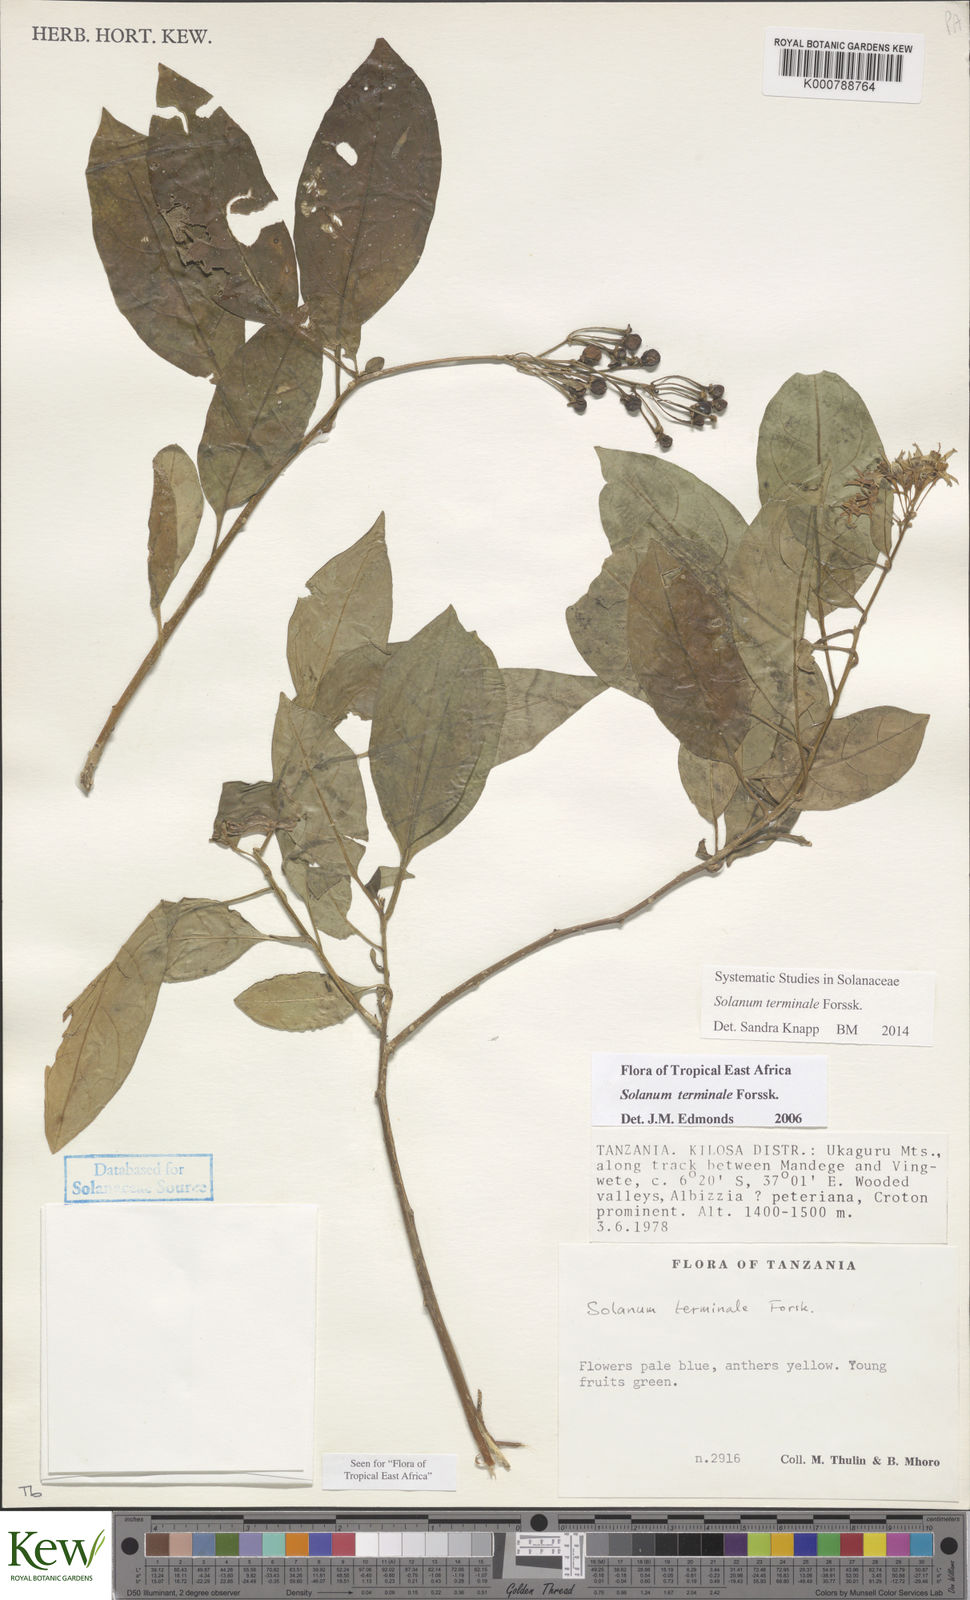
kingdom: Plantae
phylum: Tracheophyta
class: Magnoliopsida
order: Solanales
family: Solanaceae
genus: Solanum
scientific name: Solanum terminale
